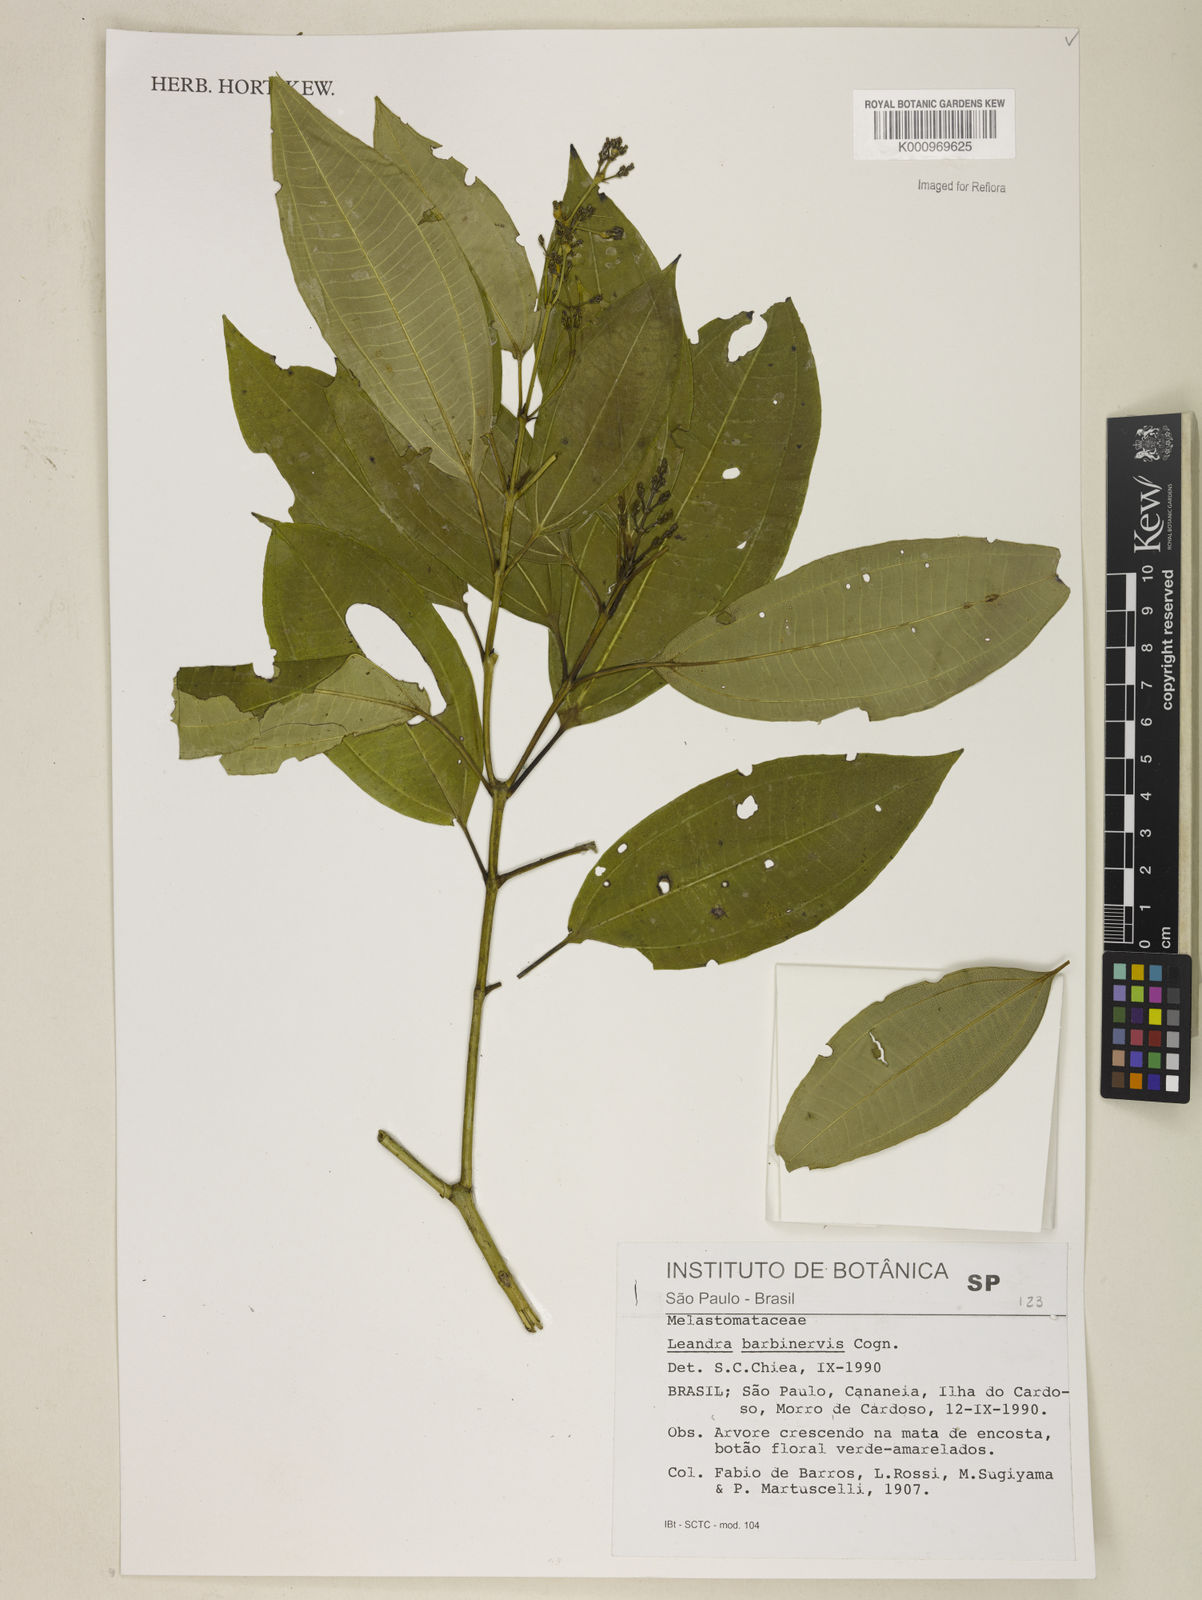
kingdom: Plantae
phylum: Tracheophyta
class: Magnoliopsida
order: Myrtales
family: Melastomataceae
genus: Miconia
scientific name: Miconia trauninensis
